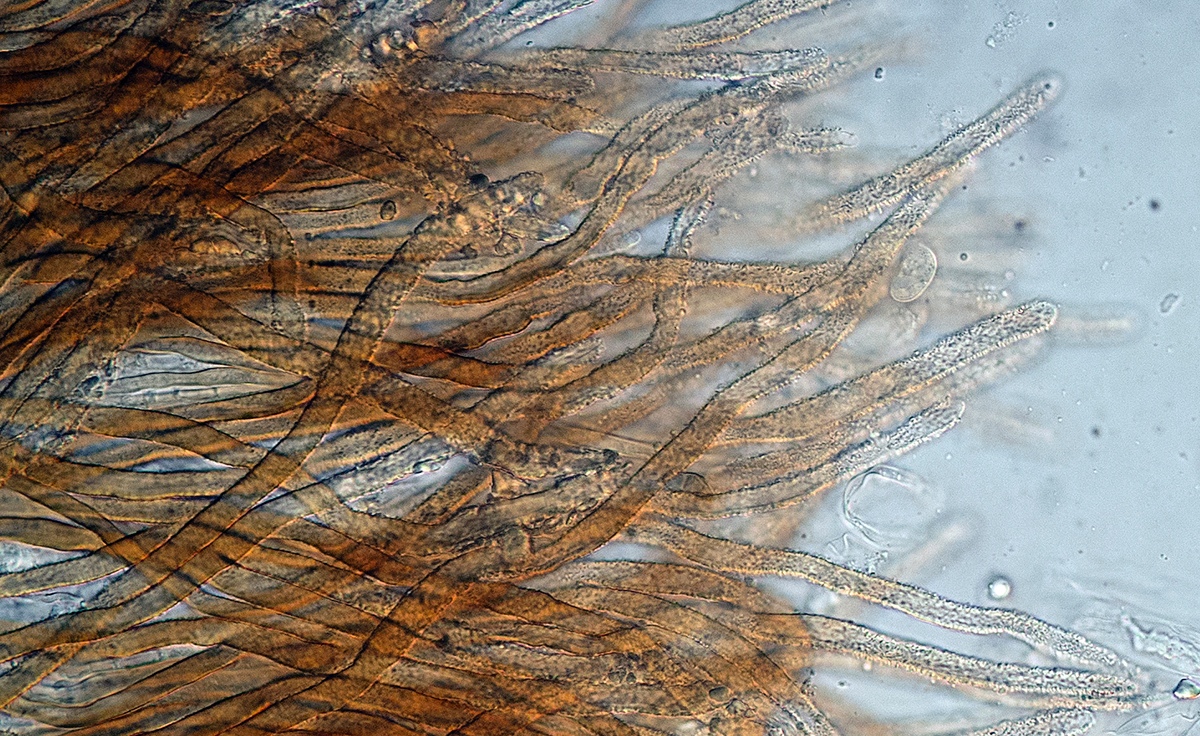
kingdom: Fungi
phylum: Basidiomycota
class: Agaricomycetes
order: Agaricales
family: Niaceae
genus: Merismodes
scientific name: Merismodes
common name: urte-læderskål
